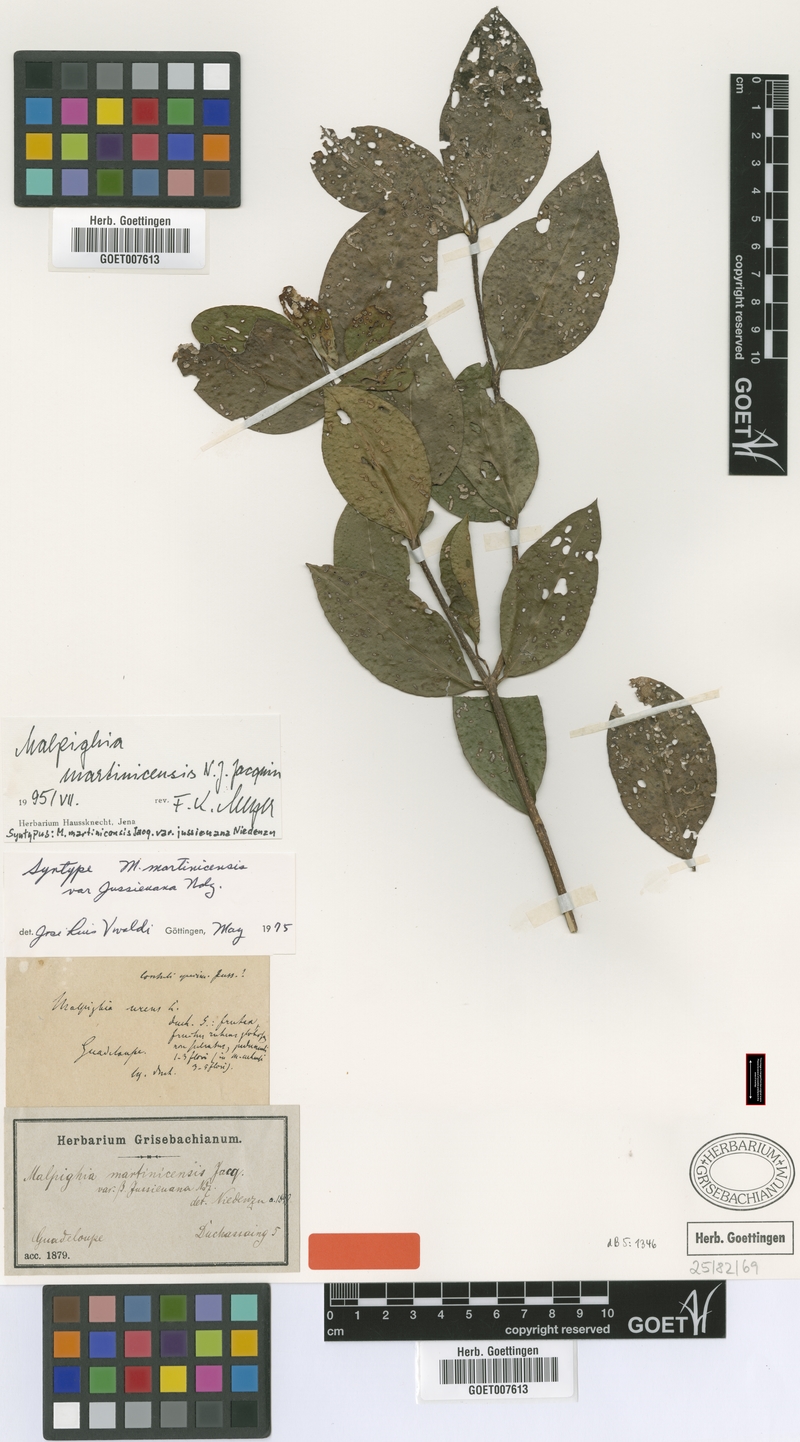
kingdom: Plantae
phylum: Tracheophyta
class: Magnoliopsida
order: Malpighiales
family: Malpighiaceae
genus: Malpighia
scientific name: Malpighia martinicensis
